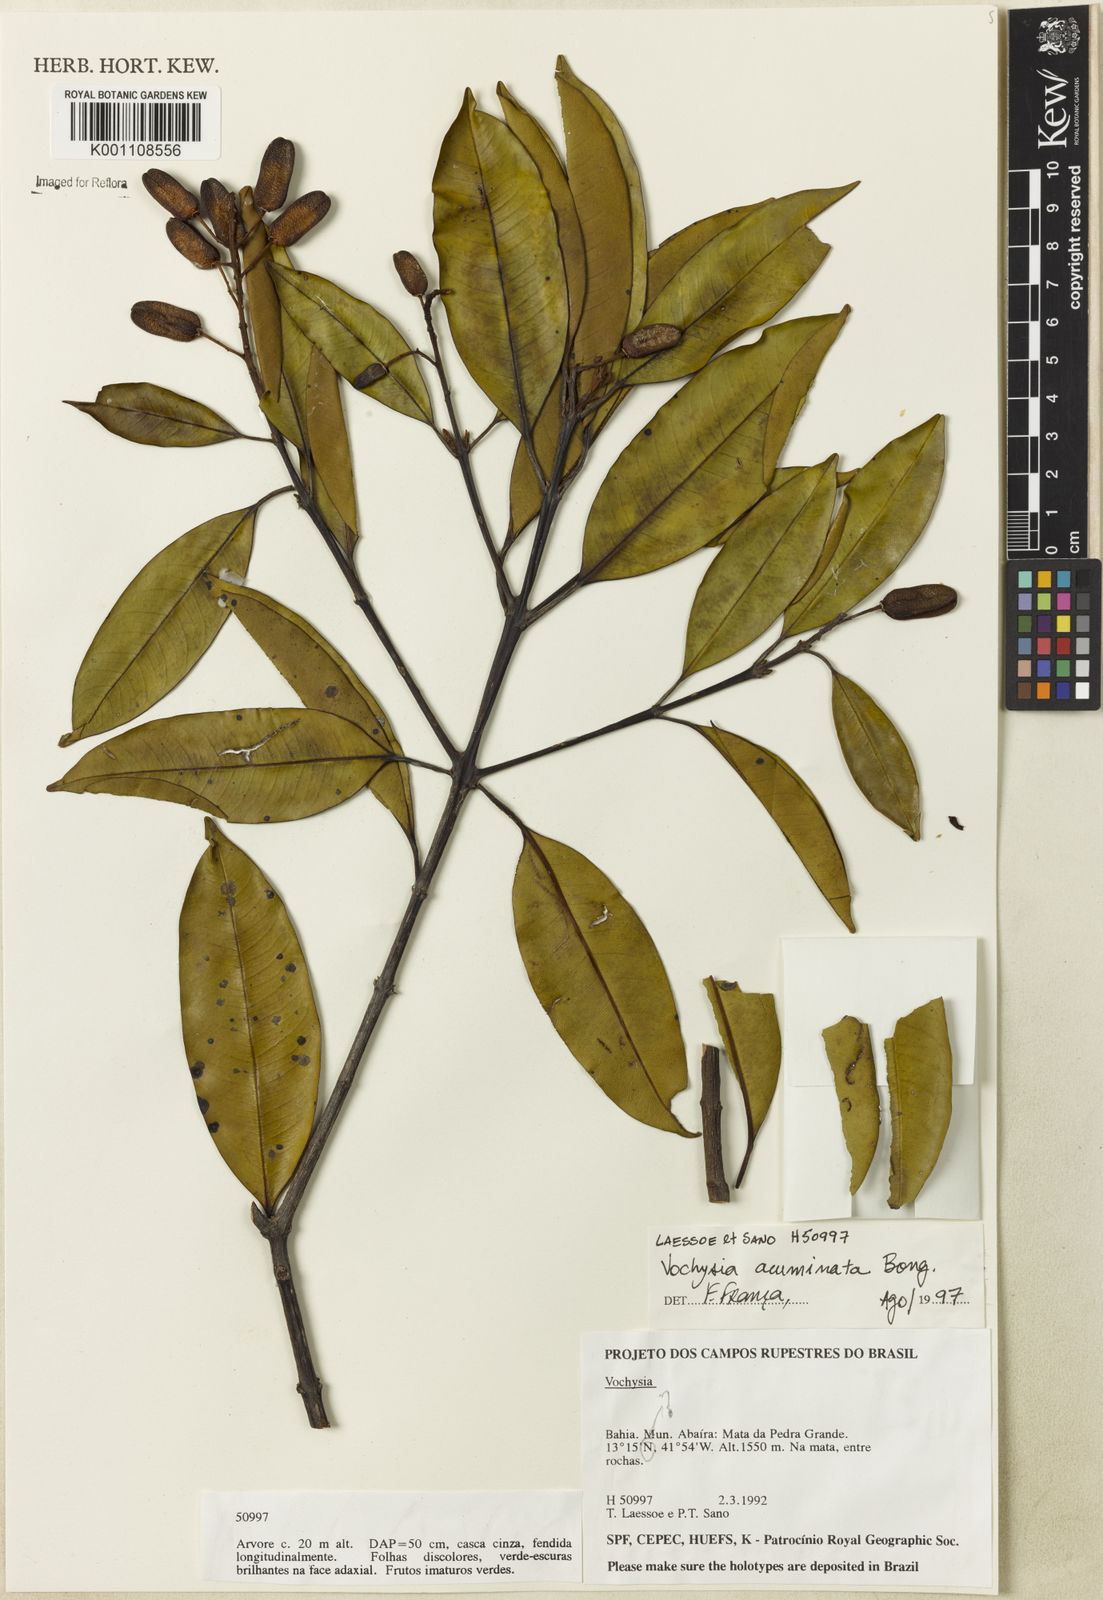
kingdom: Plantae
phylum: Tracheophyta
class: Magnoliopsida
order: Myrtales
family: Vochysiaceae
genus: Vochysia
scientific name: Vochysia acuminata
